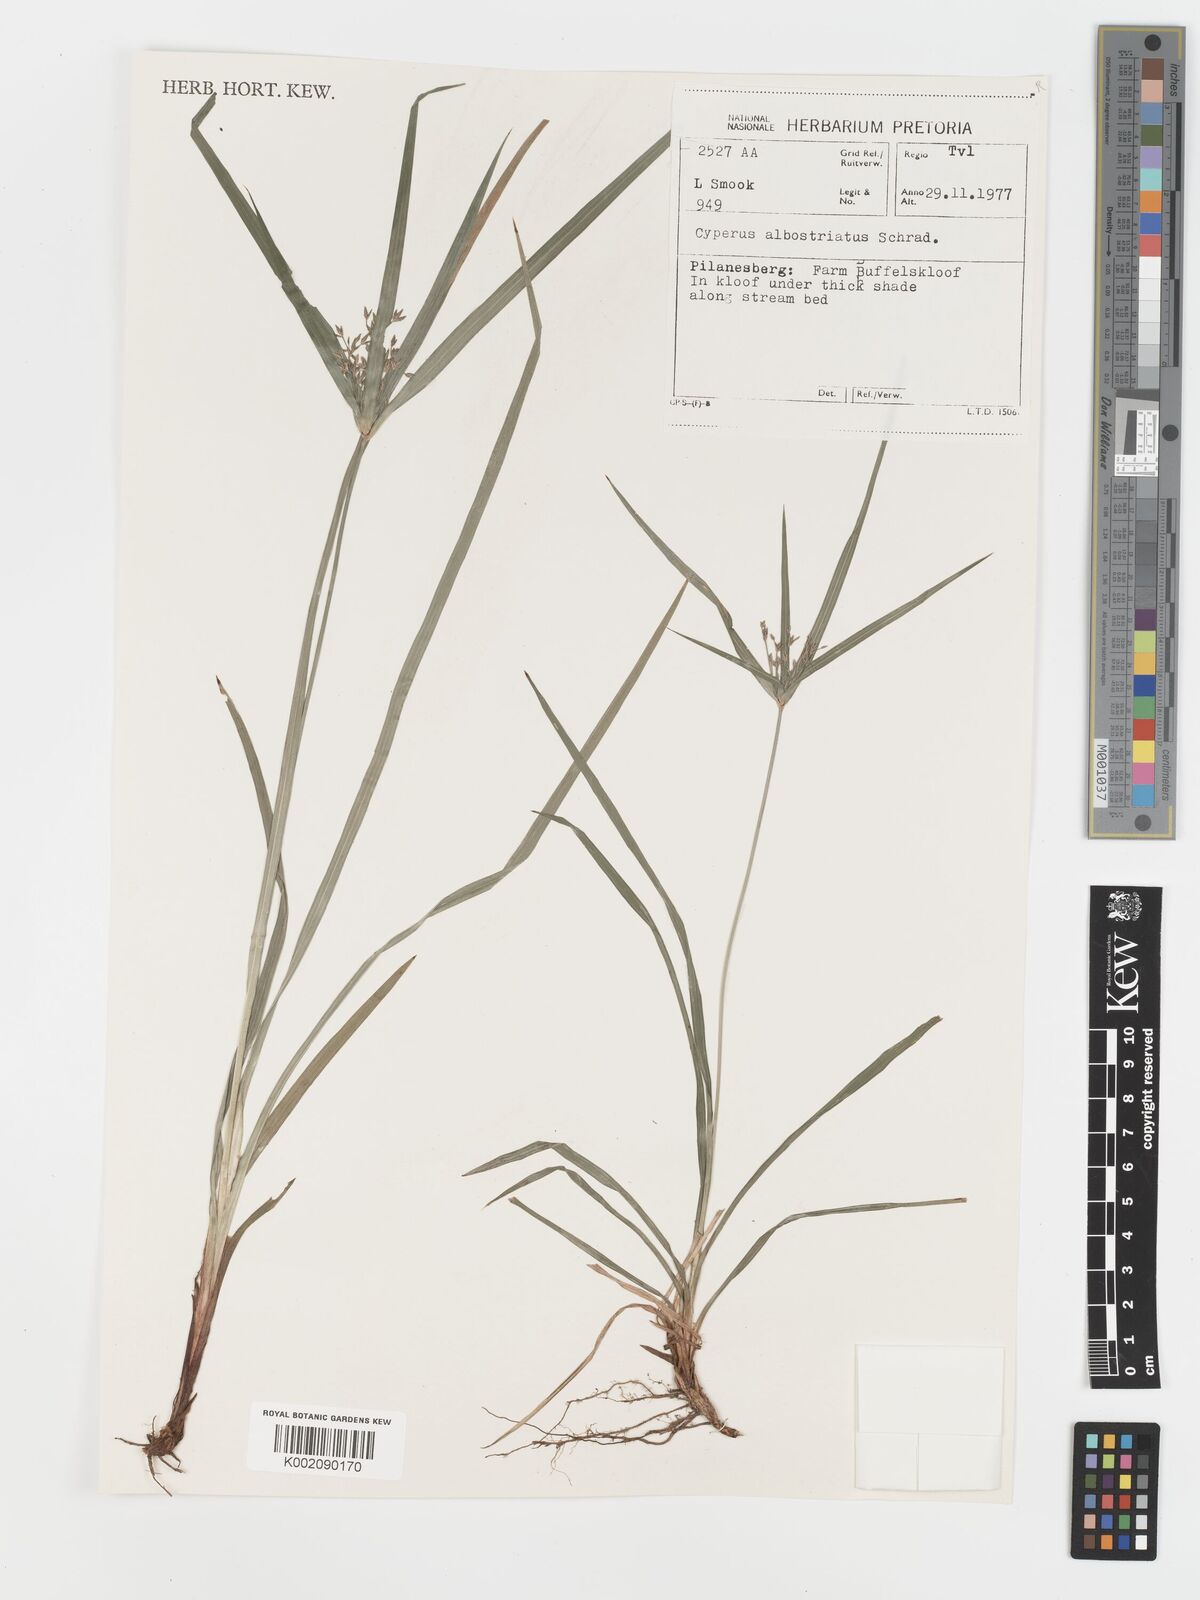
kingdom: Plantae
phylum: Tracheophyta
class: Liliopsida
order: Poales
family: Cyperaceae
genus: Cyperus
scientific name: Cyperus albostriatus
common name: Dwarf umbrella-grass
